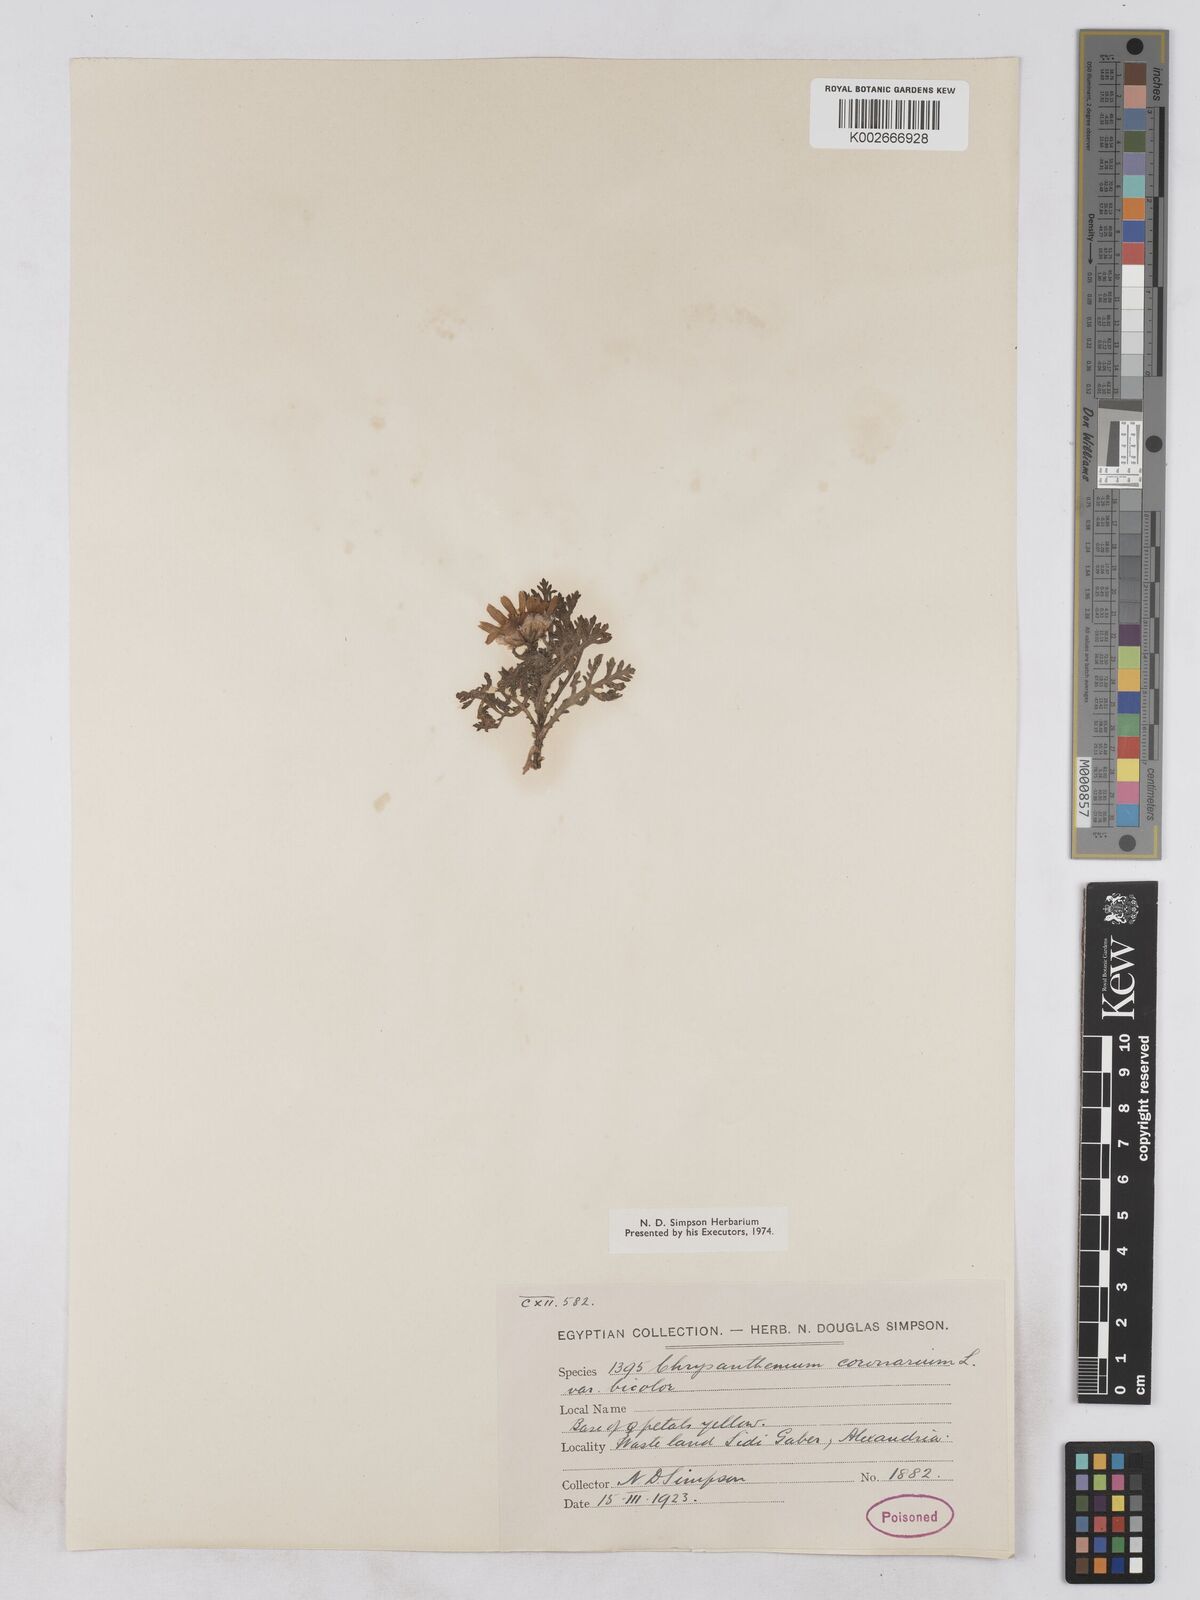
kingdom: Plantae
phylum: Tracheophyta
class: Magnoliopsida
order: Asterales
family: Asteraceae
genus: Glebionis
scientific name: Glebionis coronaria
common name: Crowndaisy
